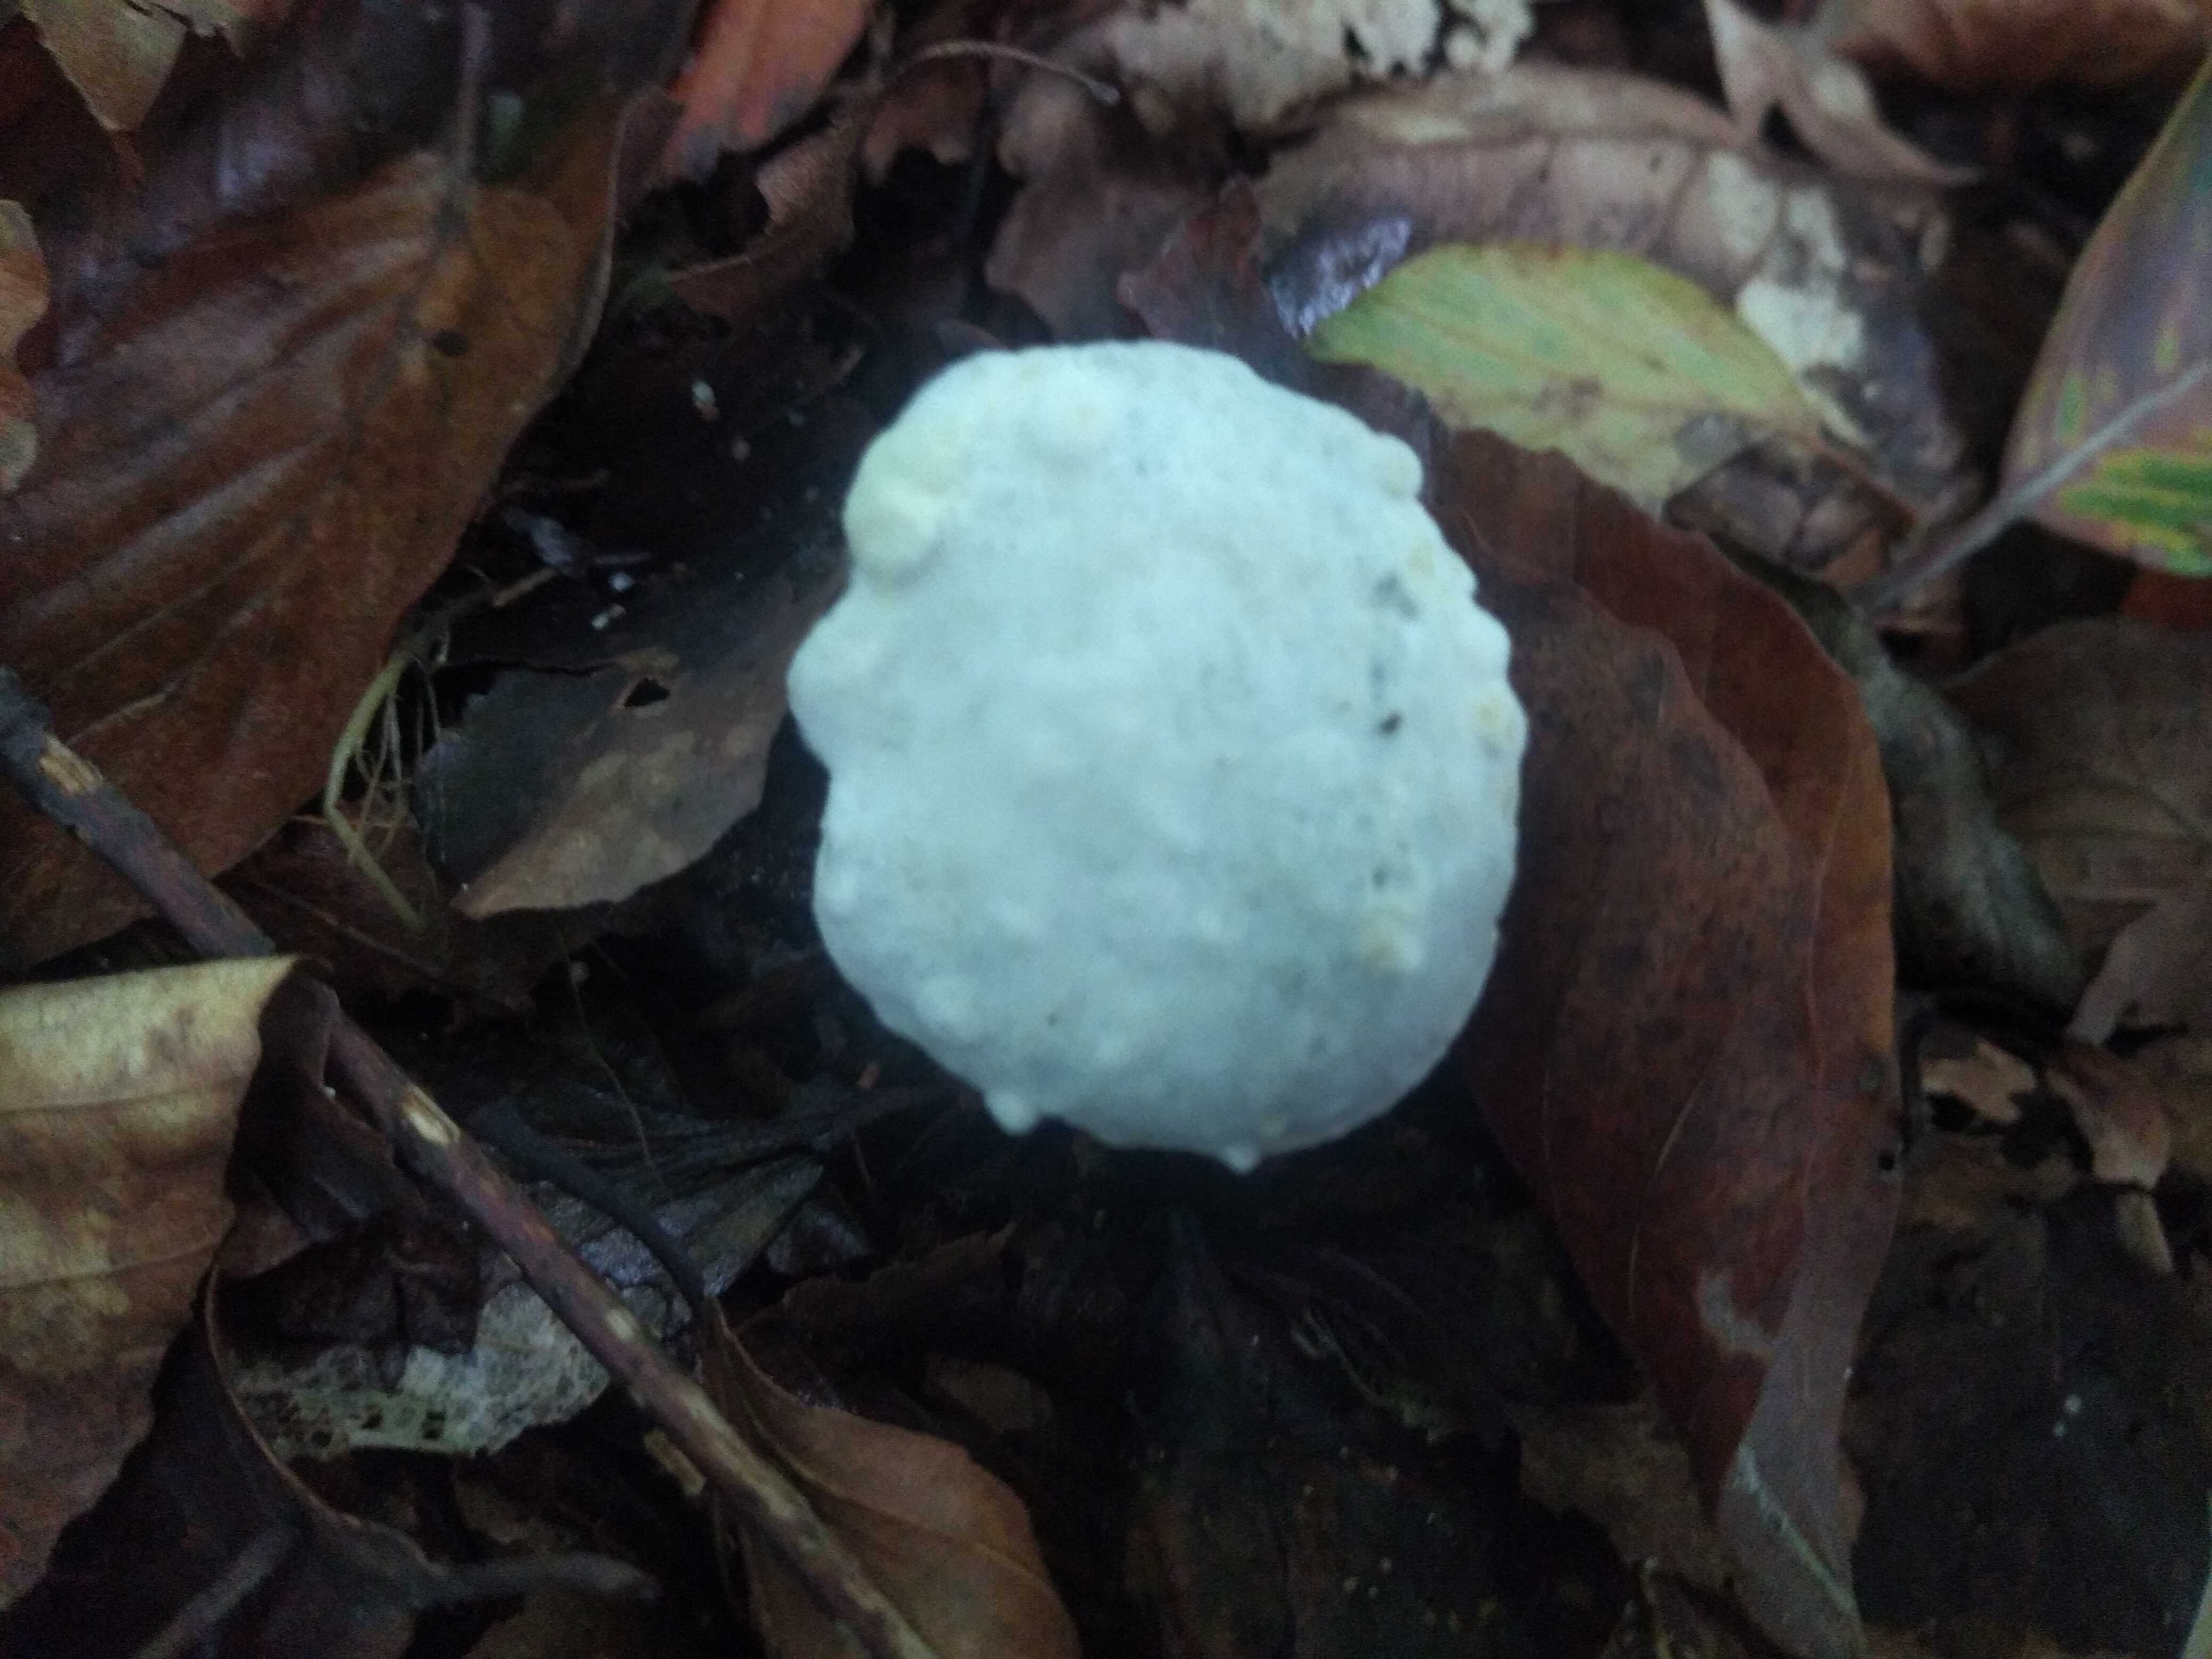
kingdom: Fungi
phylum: Ascomycota
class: Sordariomycetes
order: Hypocreales
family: Hypocreaceae
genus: Hypomyces
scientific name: Hypomyces
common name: snylteskorpe
